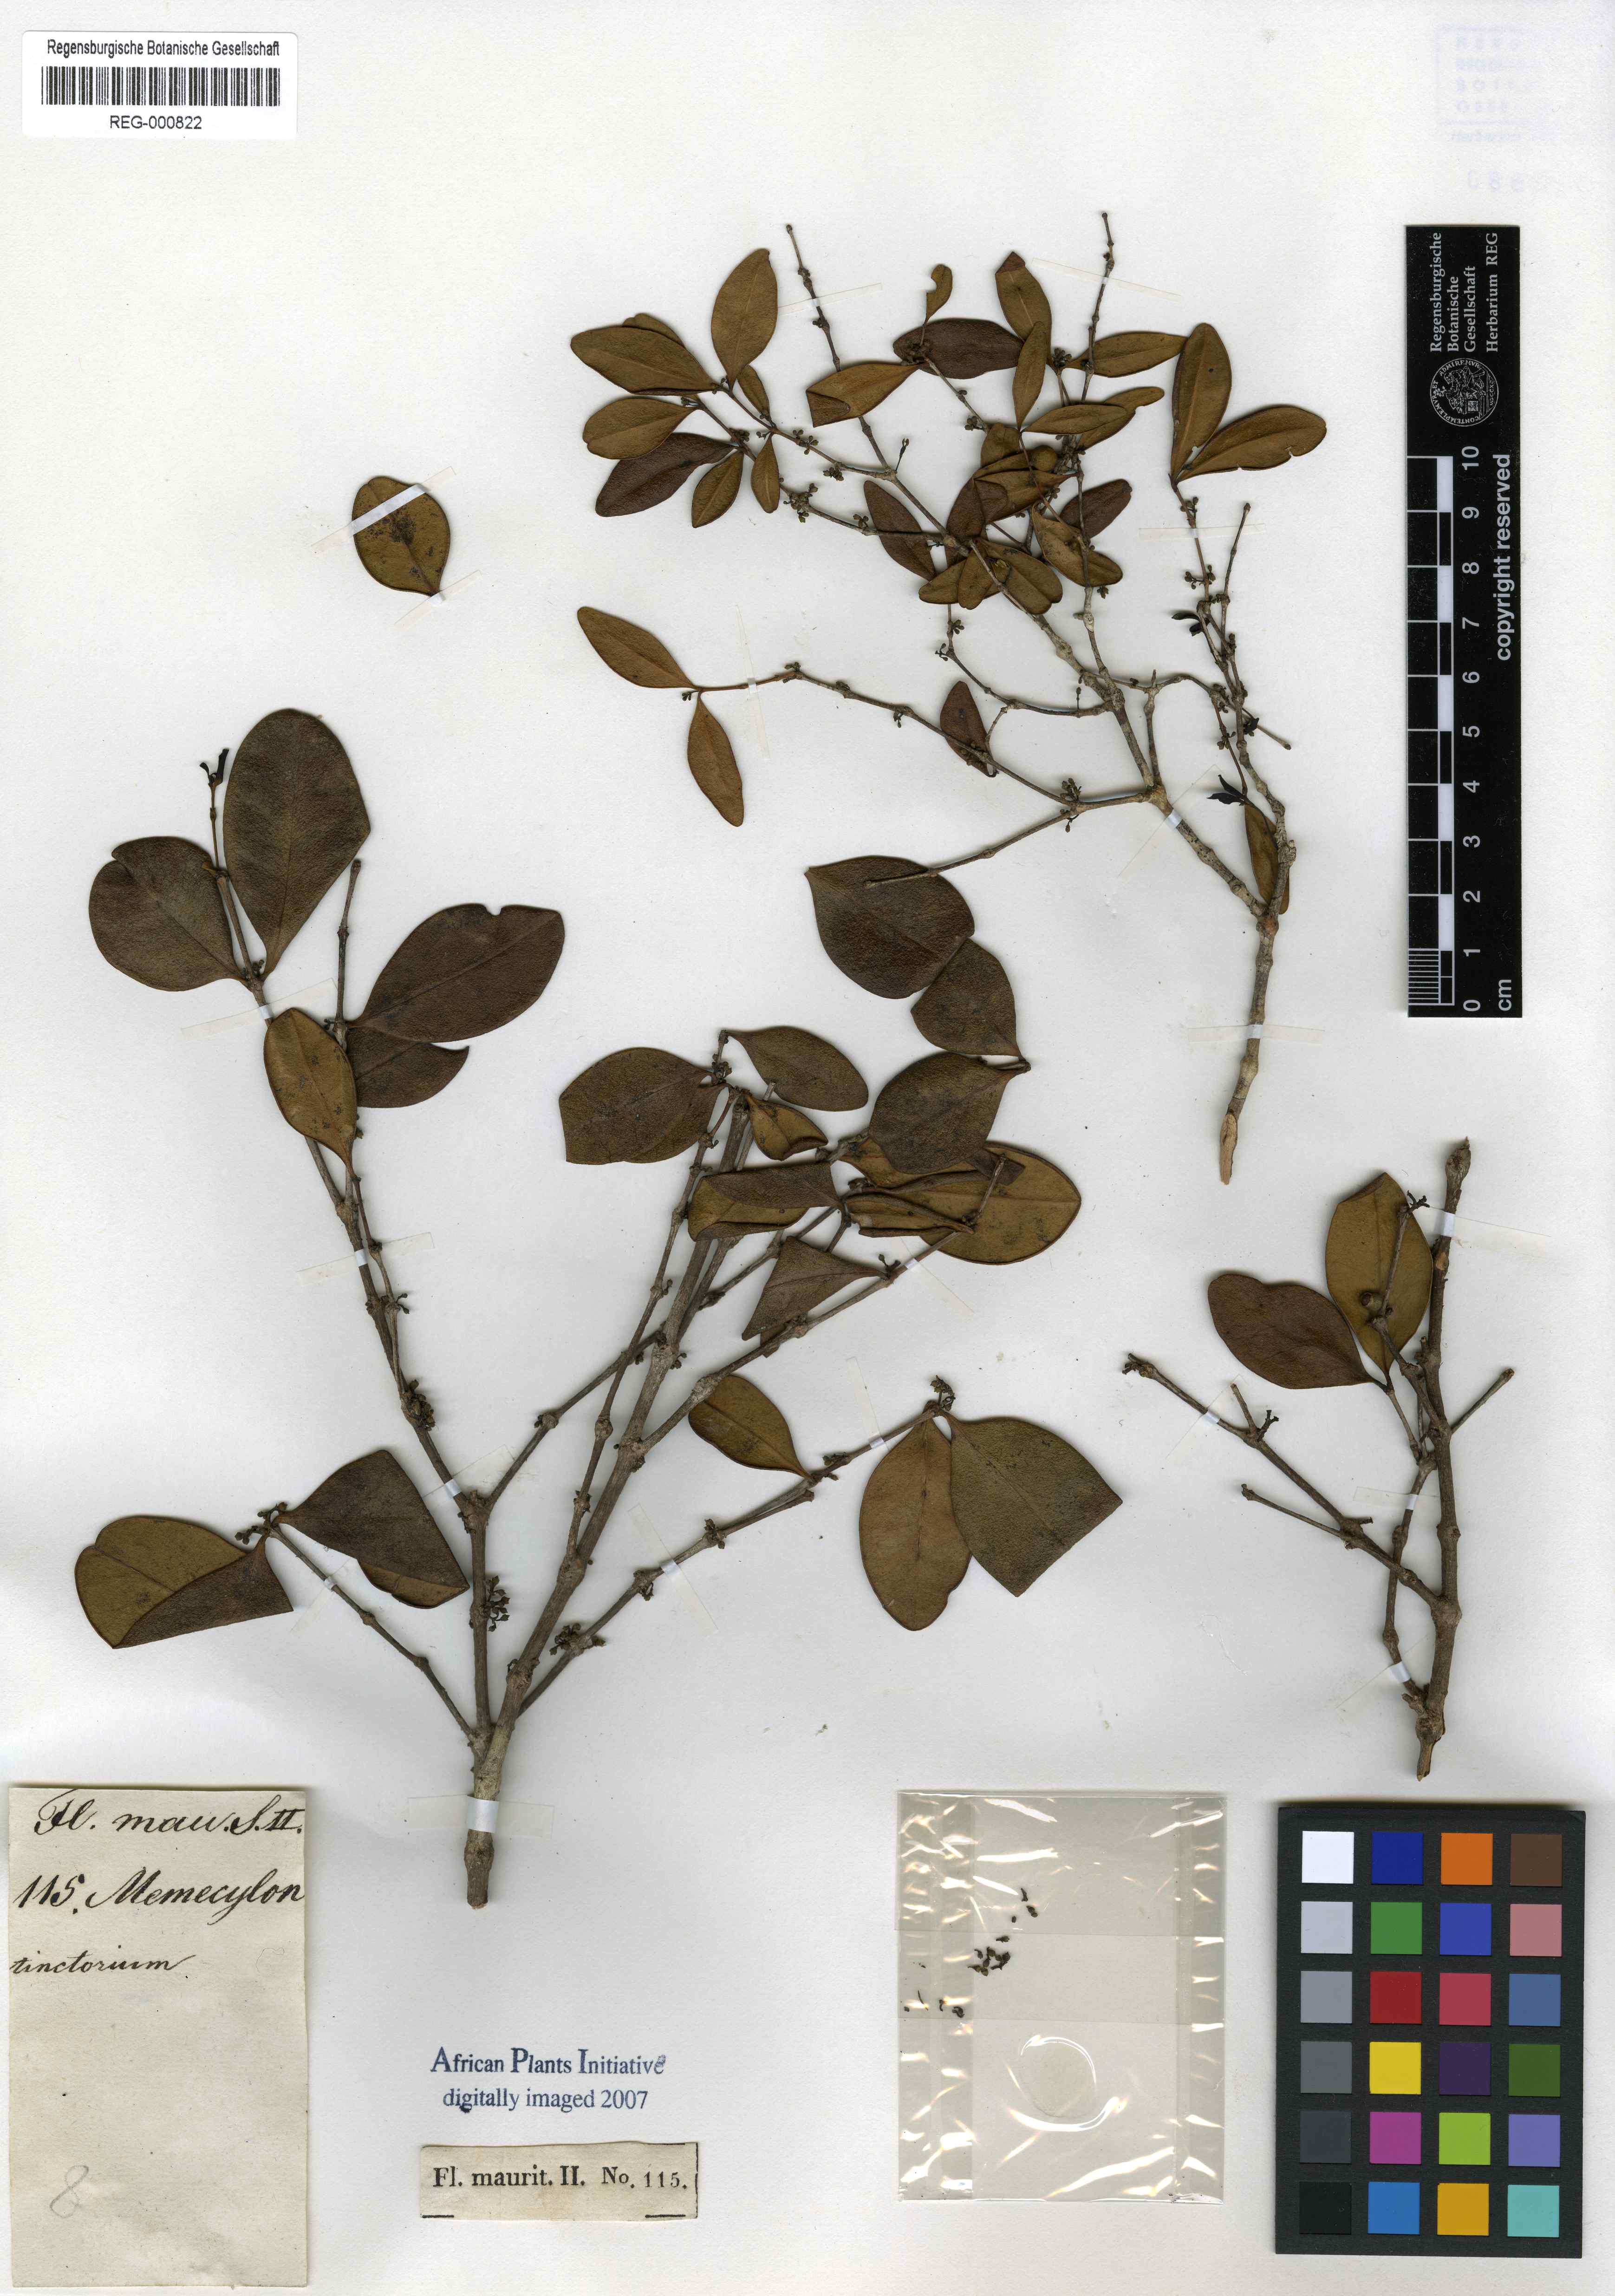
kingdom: Plantae
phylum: Tracheophyta
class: Magnoliopsida
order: Myrtales
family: Melastomataceae
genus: Memecylon
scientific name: Memecylon
